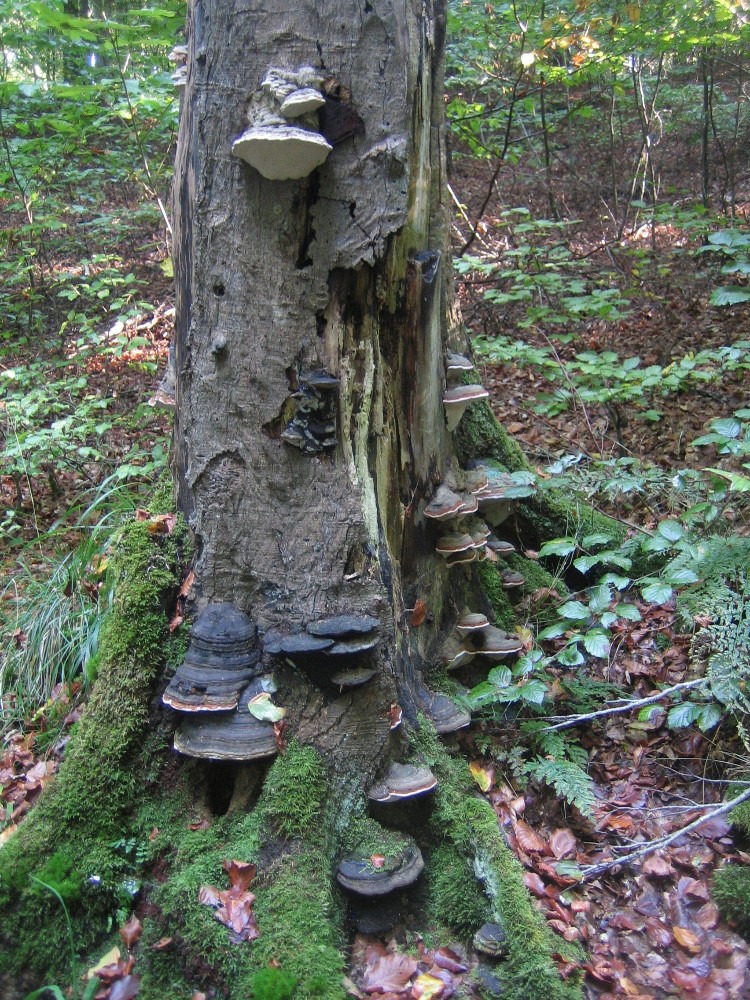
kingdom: Fungi
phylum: Basidiomycota
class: Agaricomycetes
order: Polyporales
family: Polyporaceae
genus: Fomes
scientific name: Fomes
